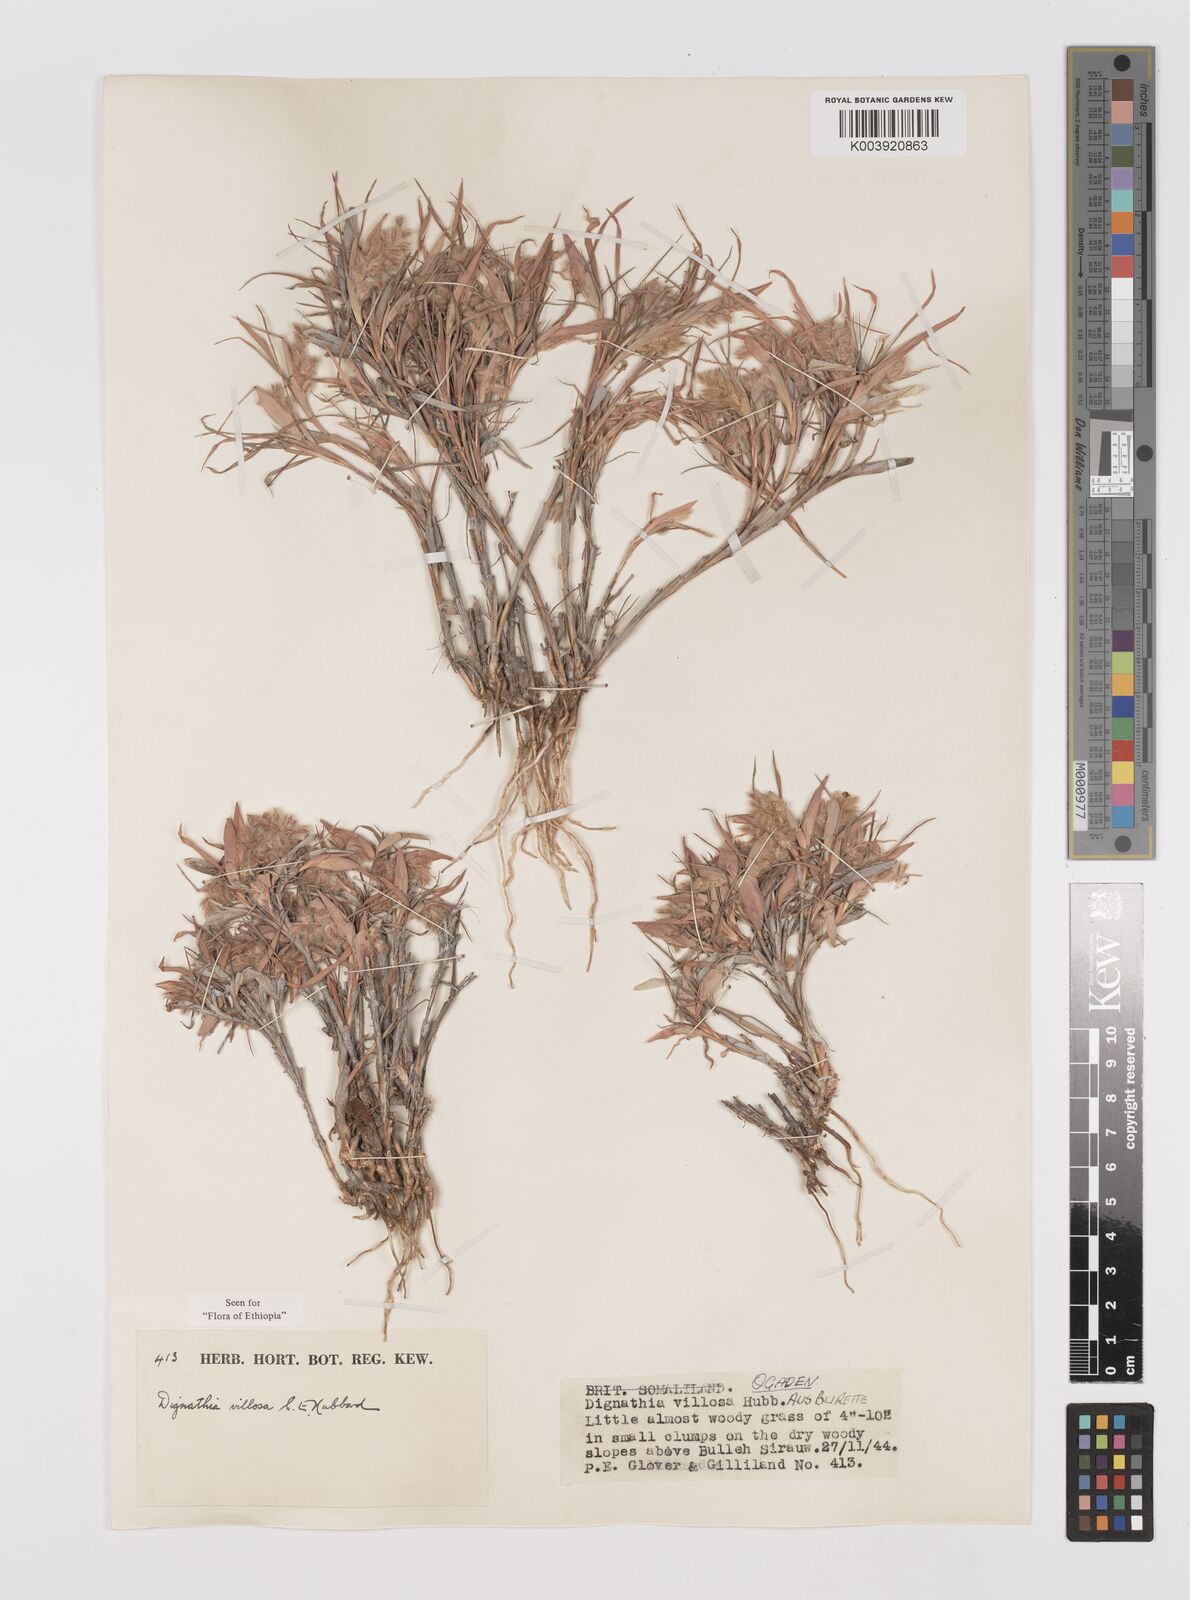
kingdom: Plantae
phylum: Tracheophyta
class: Liliopsida
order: Poales
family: Poaceae
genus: Dignathia
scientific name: Dignathia villosa
